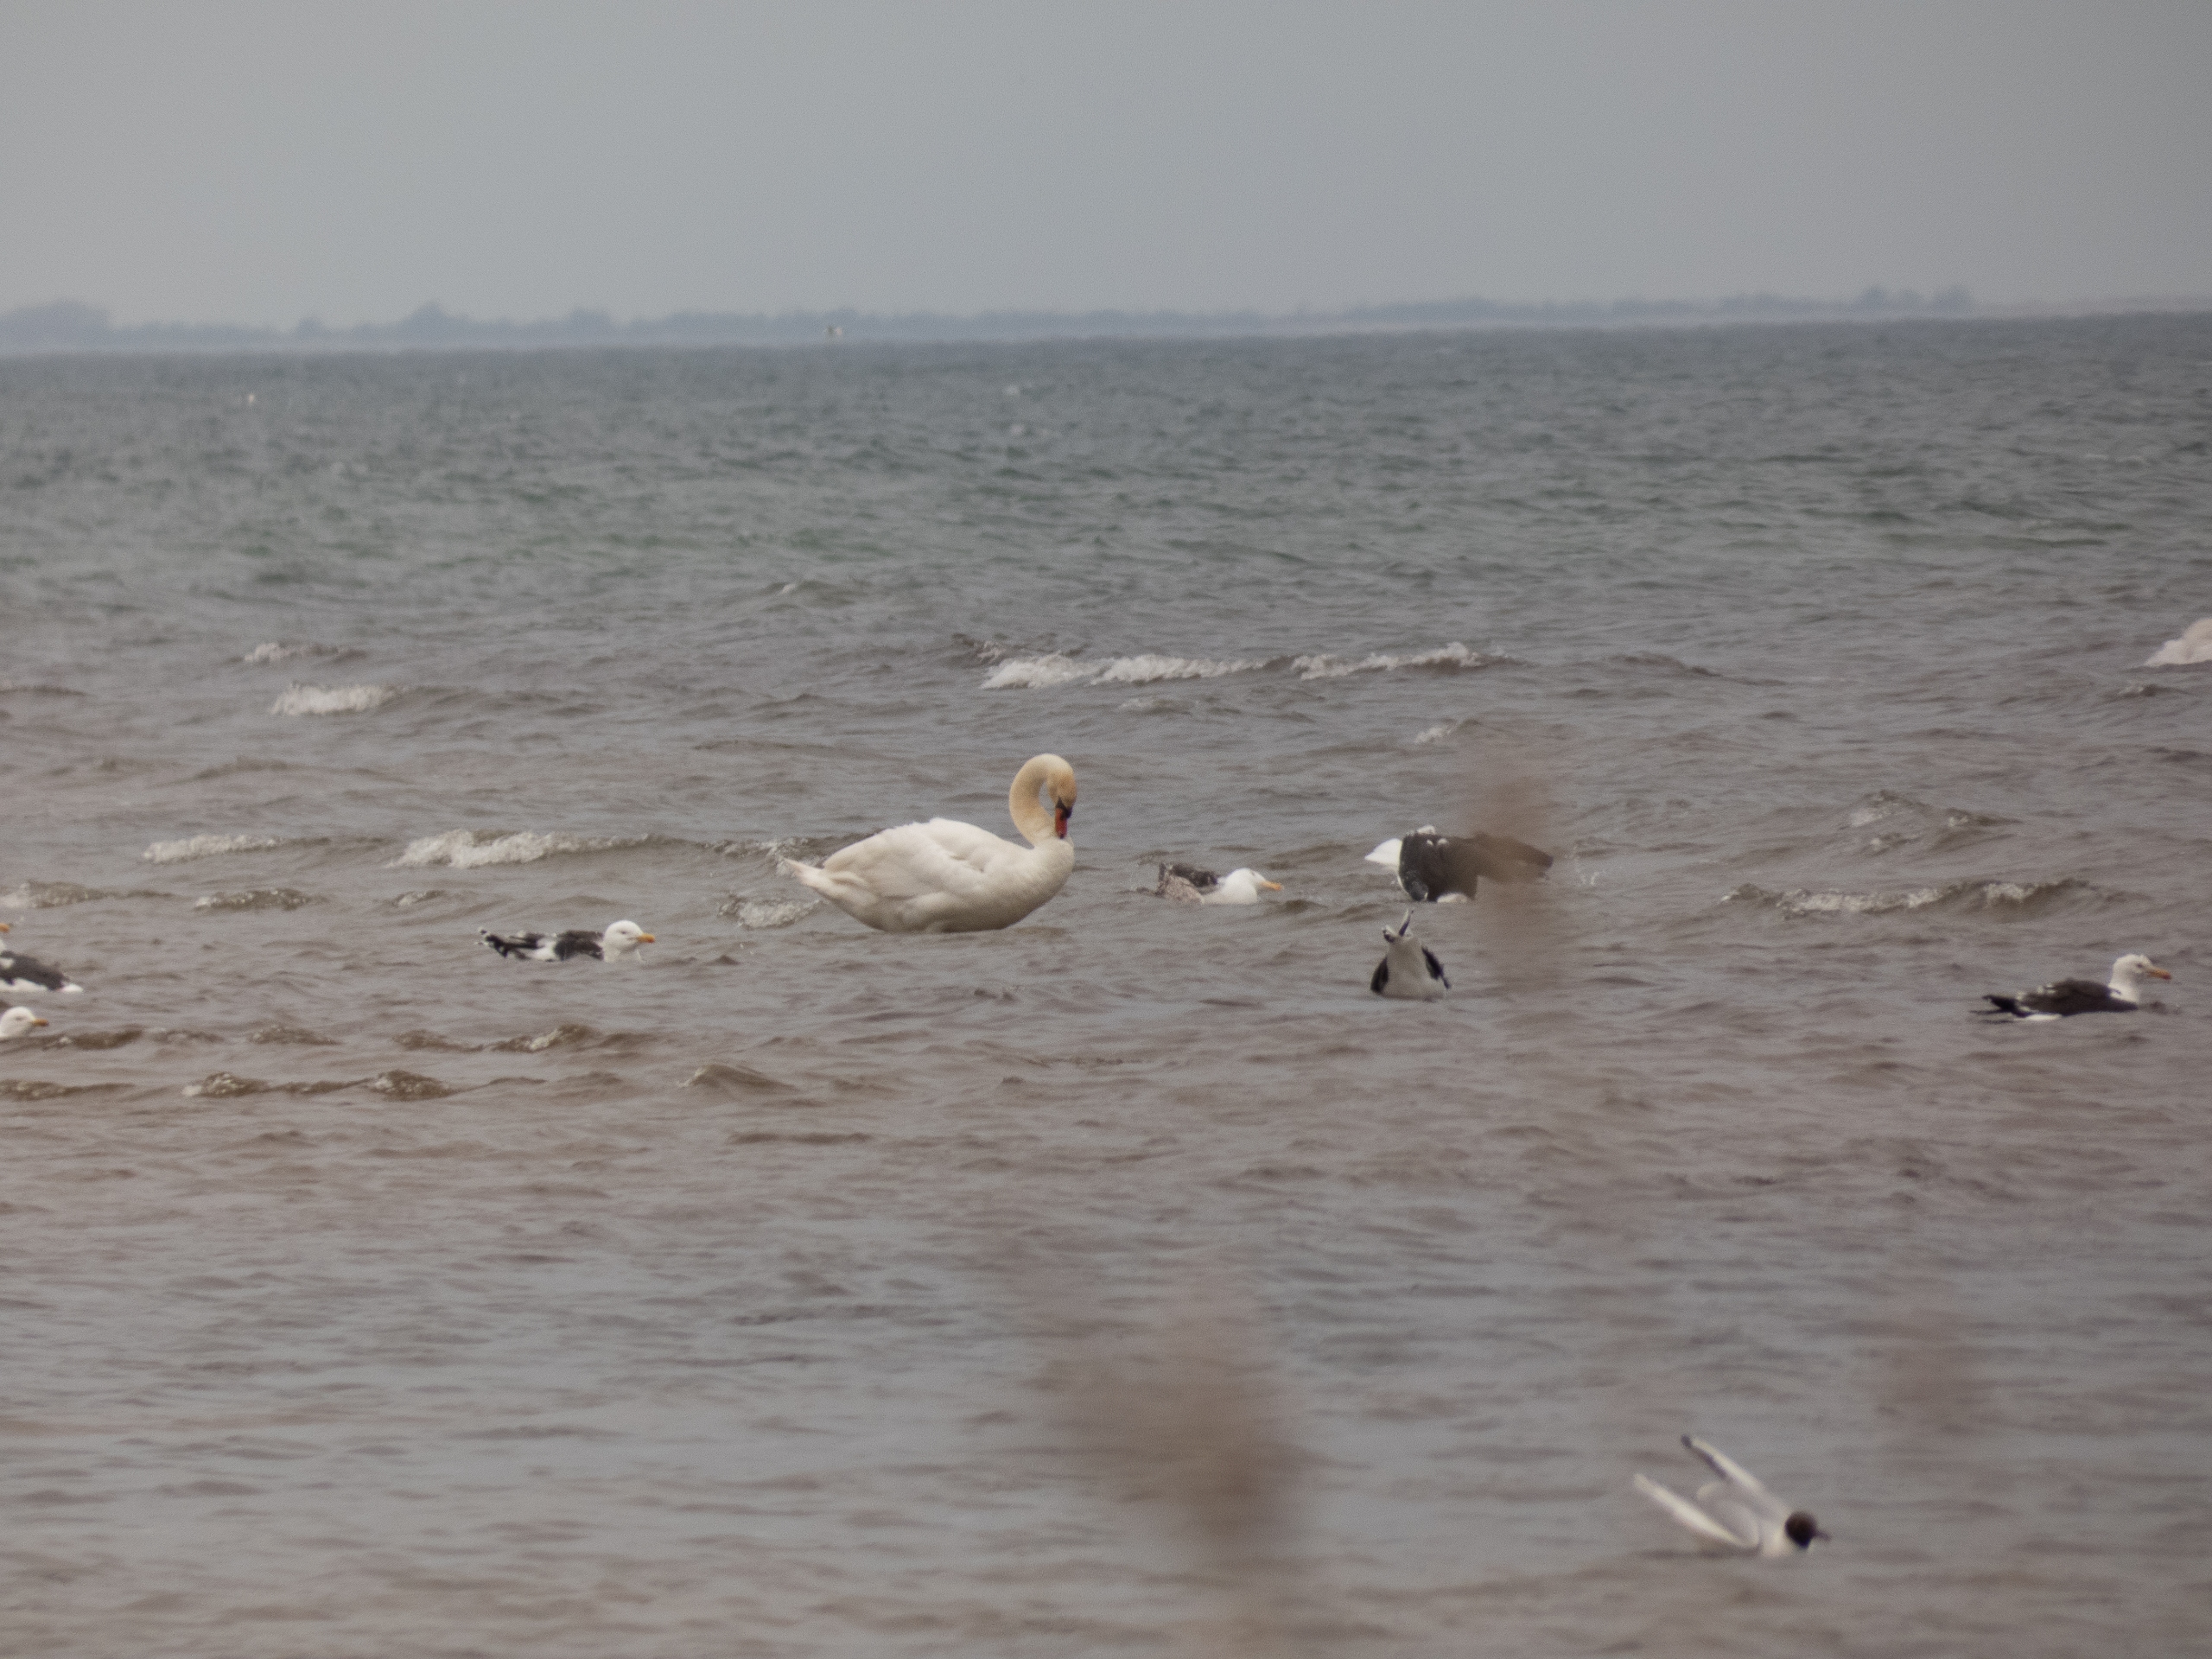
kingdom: Animalia
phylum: Chordata
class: Aves
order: Anseriformes
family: Anatidae
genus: Cygnus
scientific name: Cygnus olor
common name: Knopsvane
